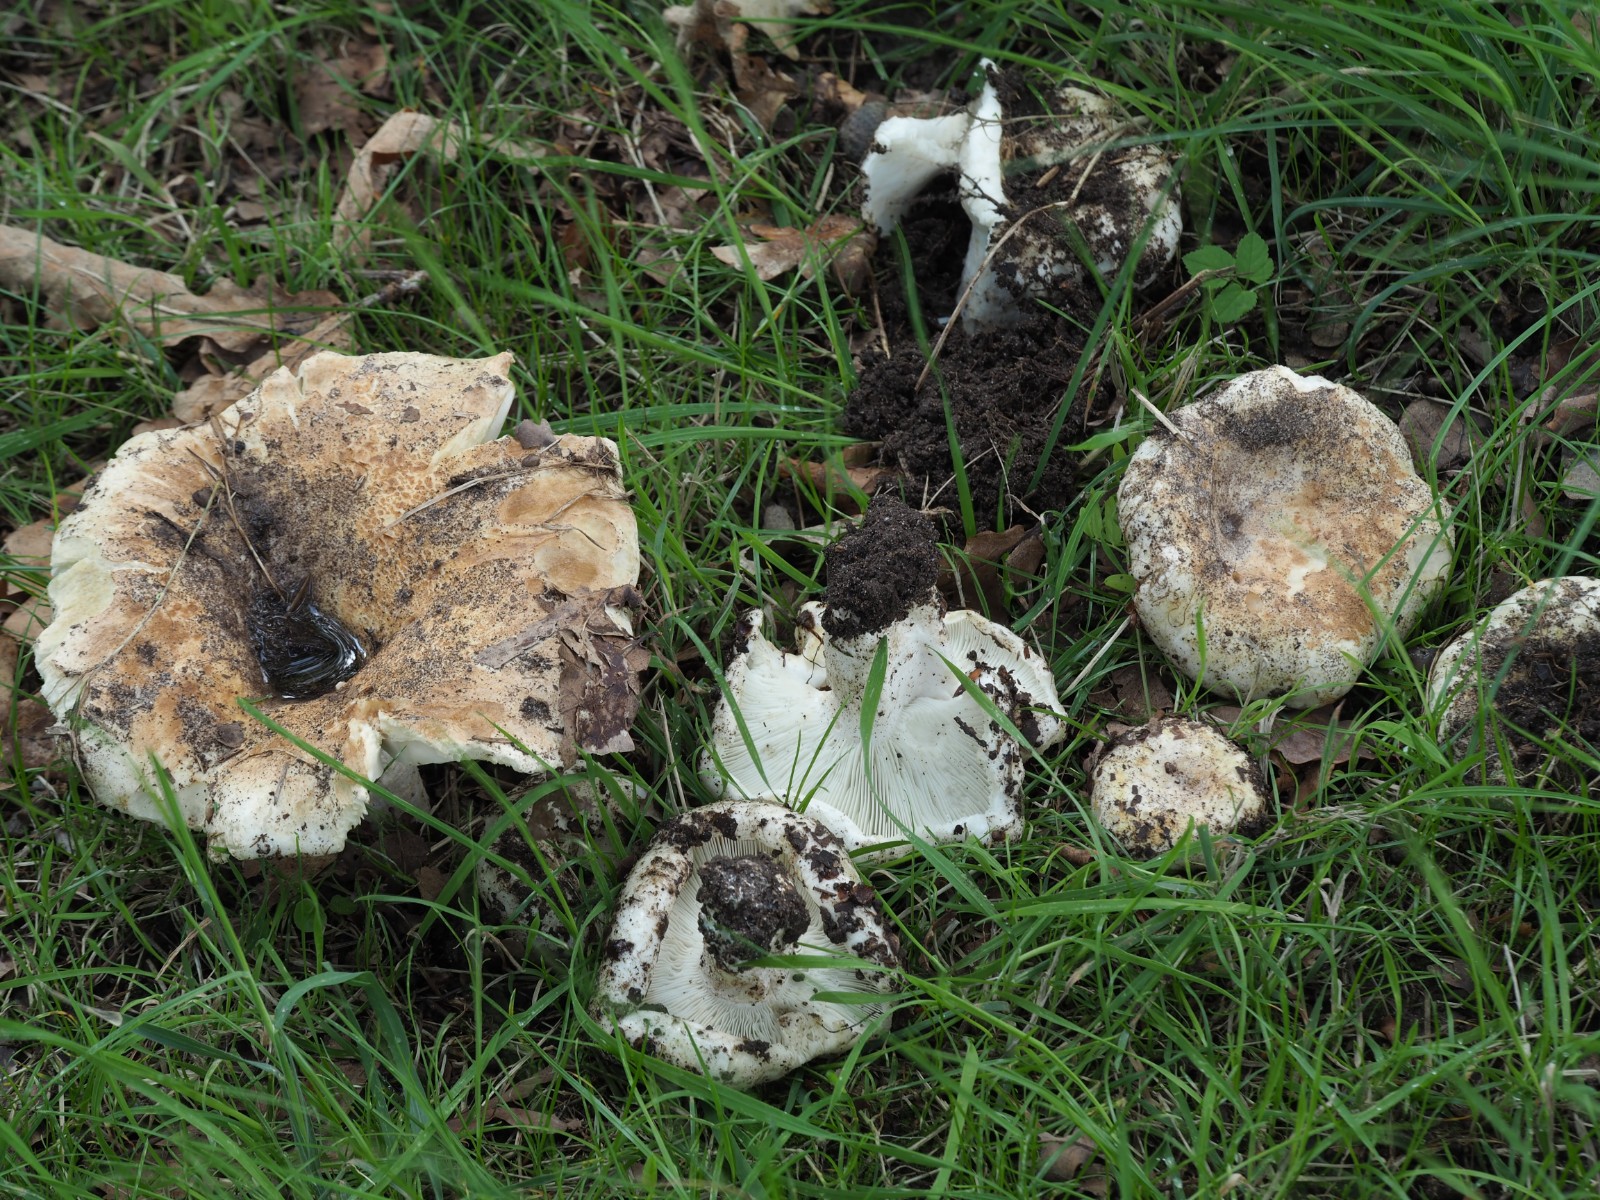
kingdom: Fungi
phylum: Basidiomycota
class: Agaricomycetes
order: Russulales
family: Russulaceae
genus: Russula
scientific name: Russula chloroides
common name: grønhalset tragt-skørhat
